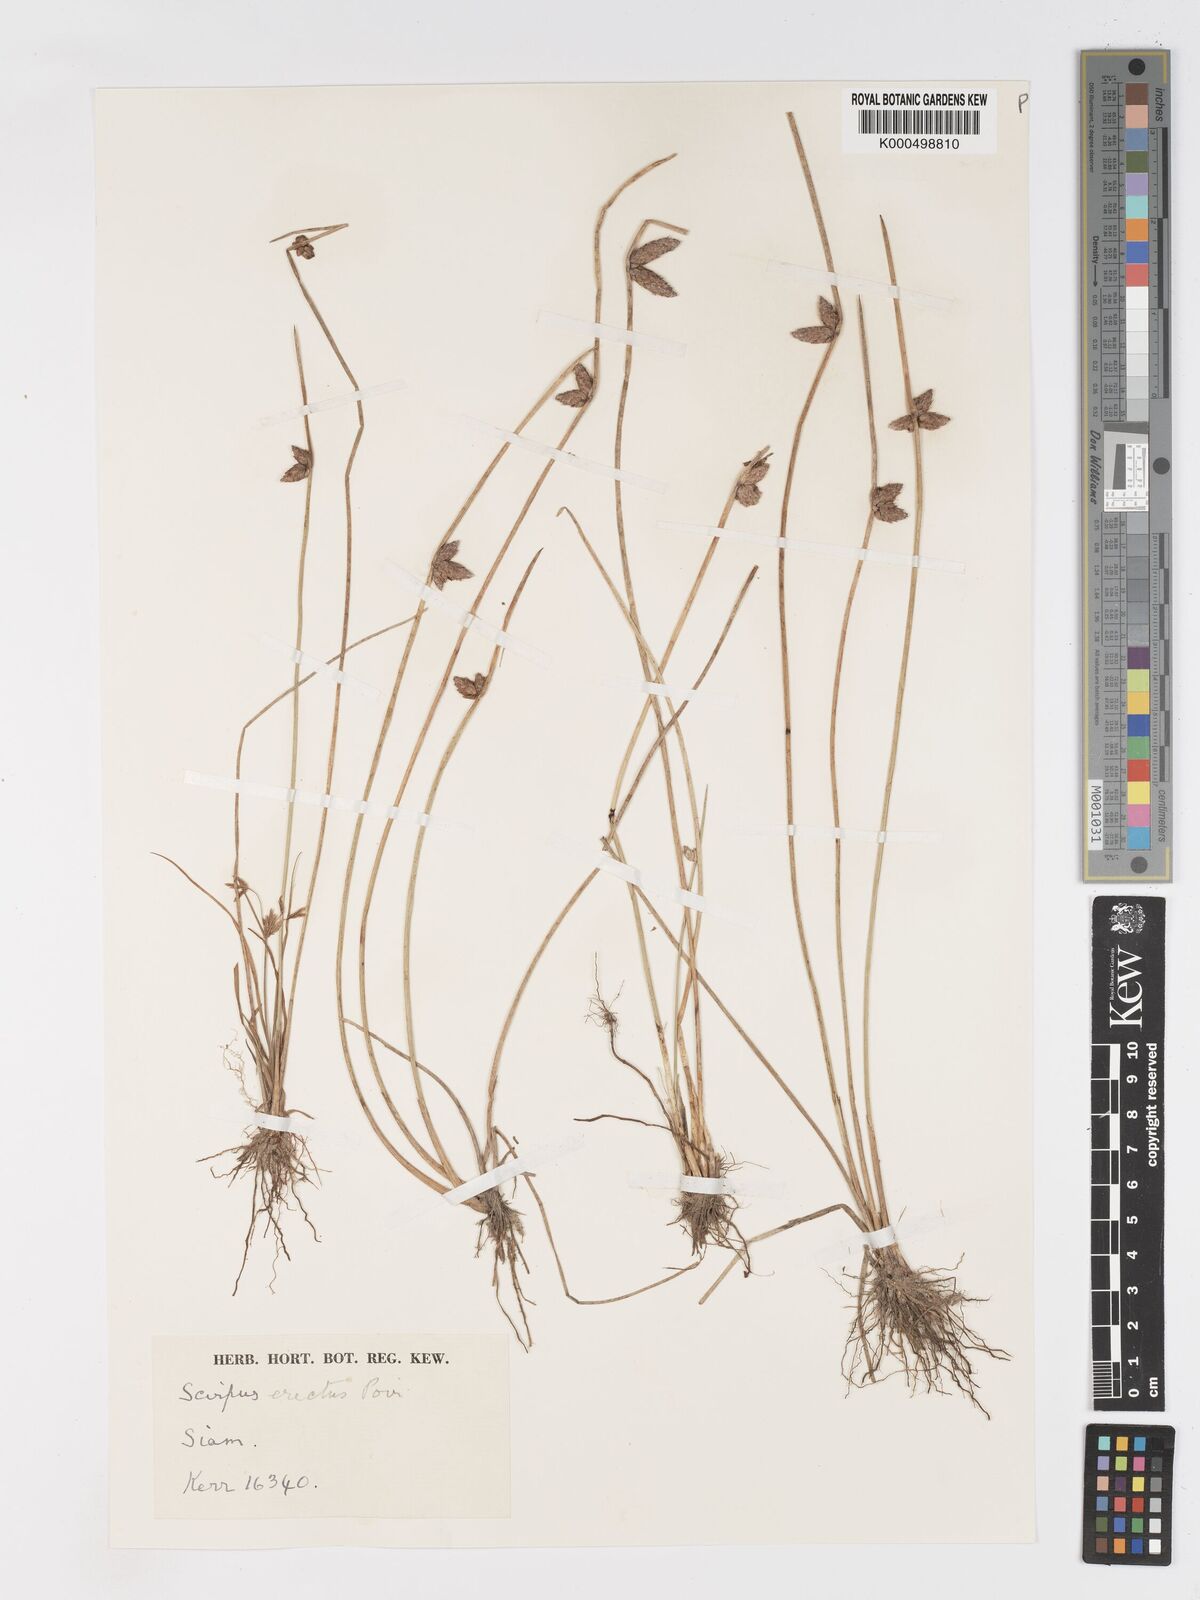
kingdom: Plantae
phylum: Tracheophyta
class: Liliopsida
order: Poales
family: Cyperaceae
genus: Schoenoplectiella
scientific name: Schoenoplectiella juncoides
